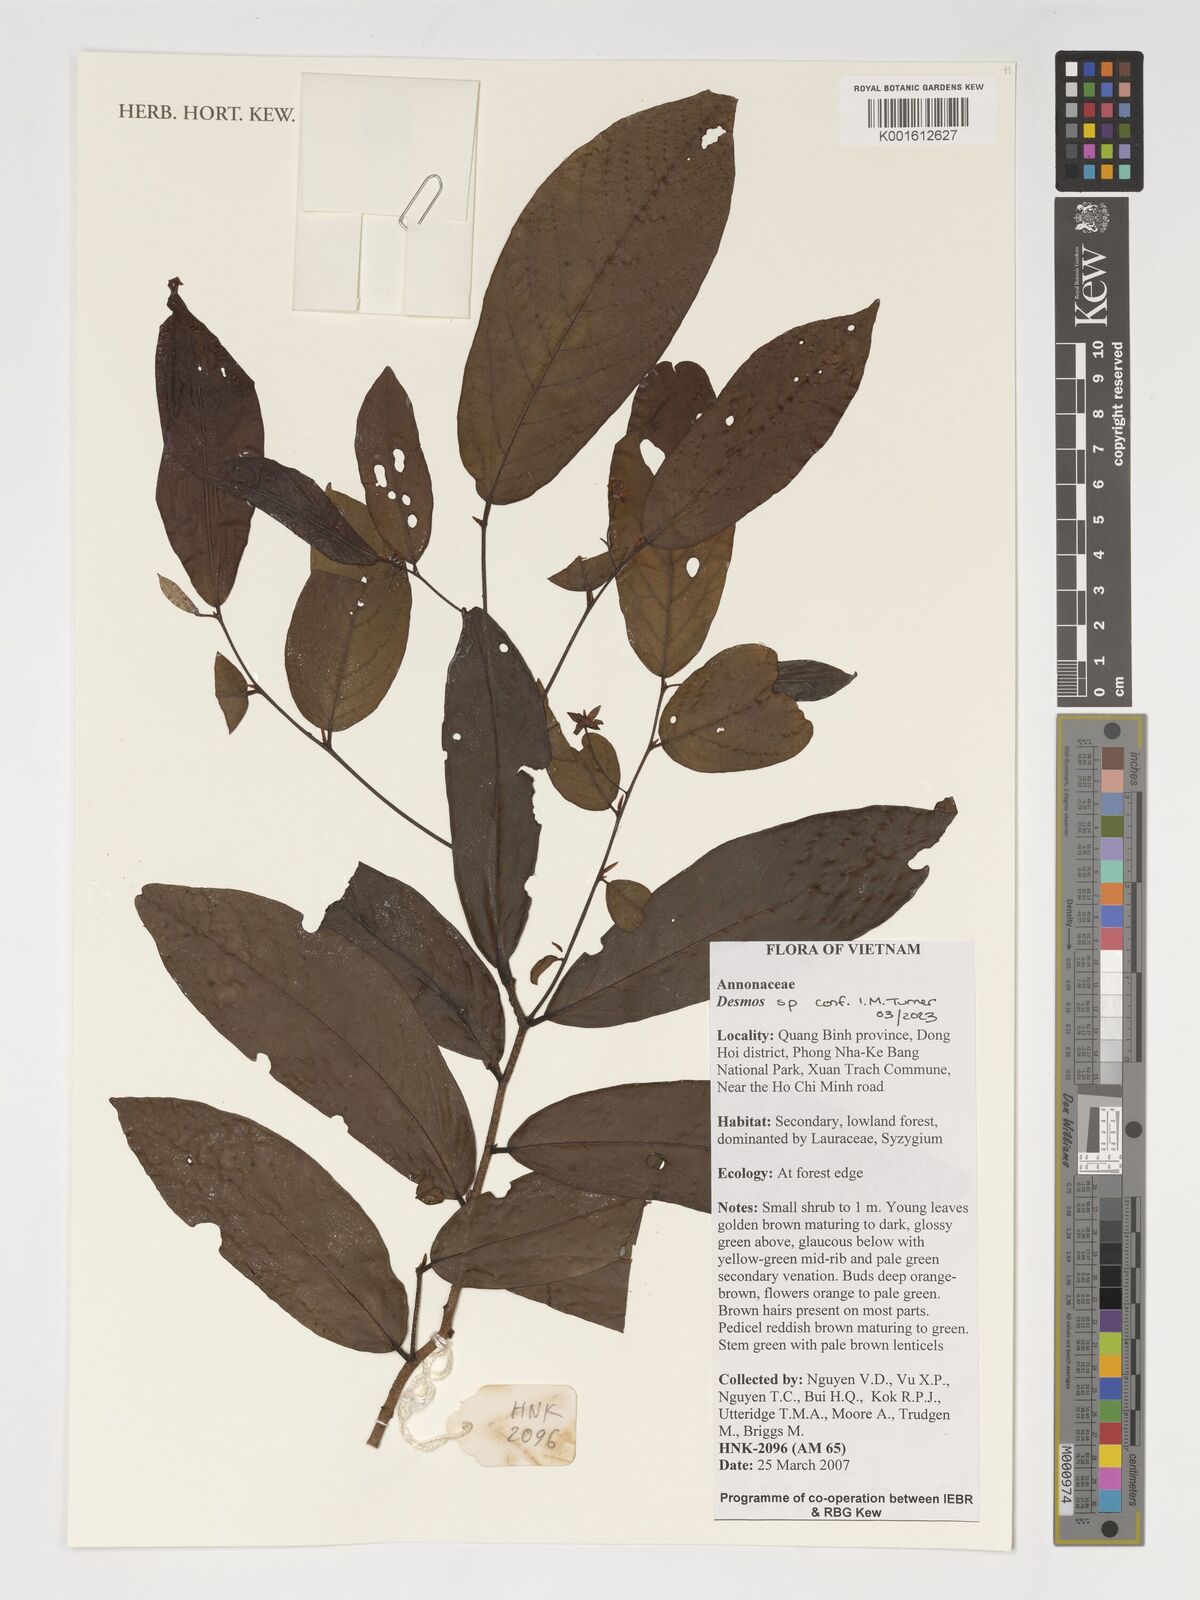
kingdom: Plantae
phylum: Tracheophyta
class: Magnoliopsida
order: Magnoliales
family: Annonaceae
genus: Desmos
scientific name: Desmos
